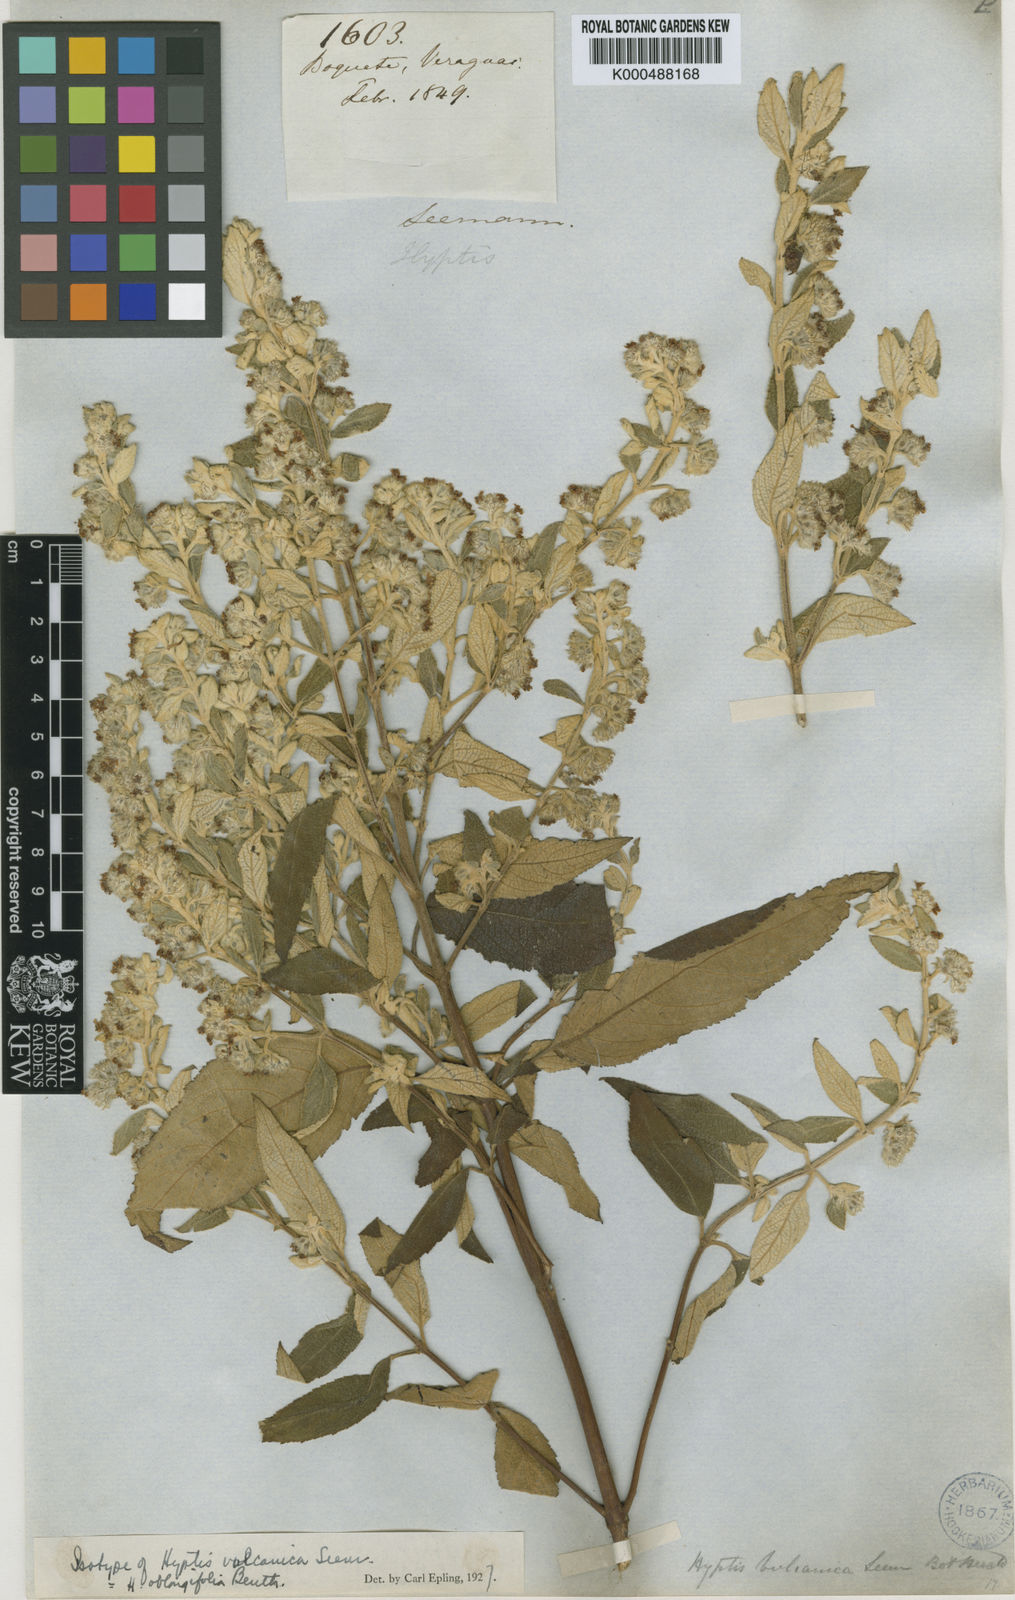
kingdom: Plantae
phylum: Tracheophyta
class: Magnoliopsida
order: Lamiales
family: Lamiaceae
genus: Mesosphaerum
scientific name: Mesosphaerum oblongifolium
